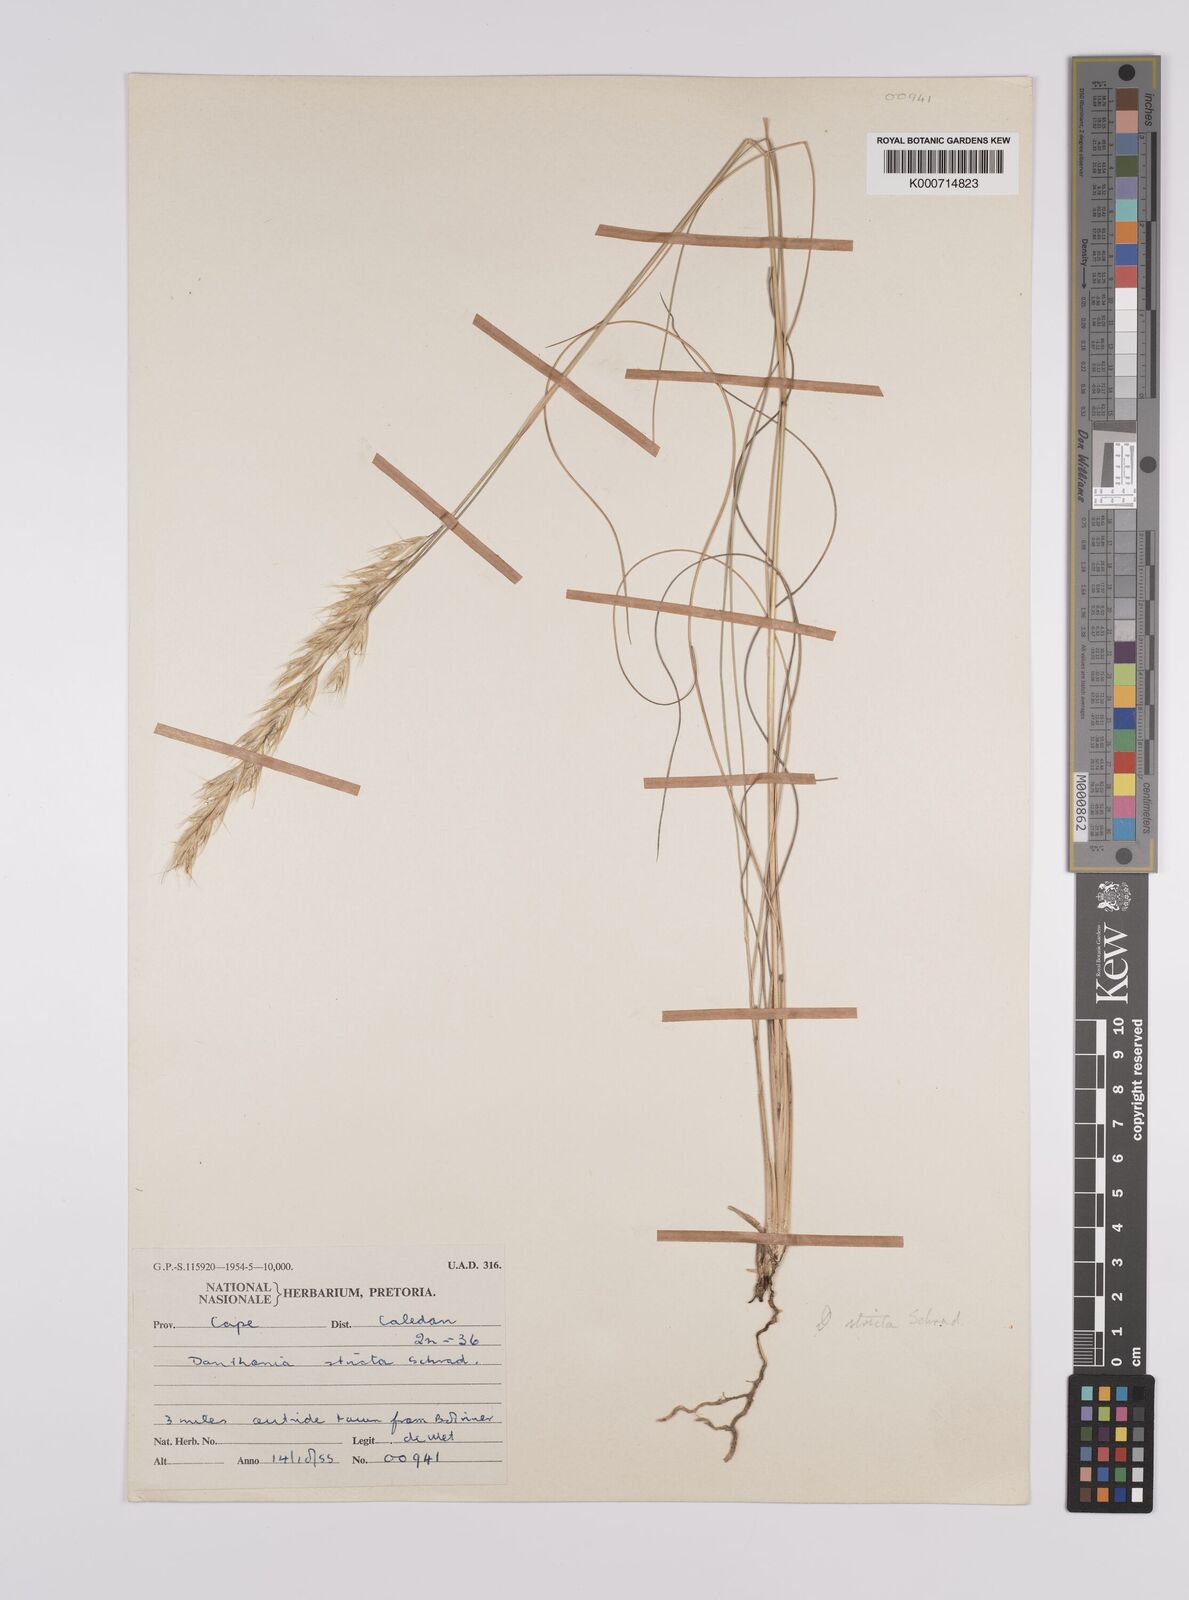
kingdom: Plantae
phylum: Tracheophyta
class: Liliopsida
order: Poales
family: Poaceae
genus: Rytidosperma
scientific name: Rytidosperma
